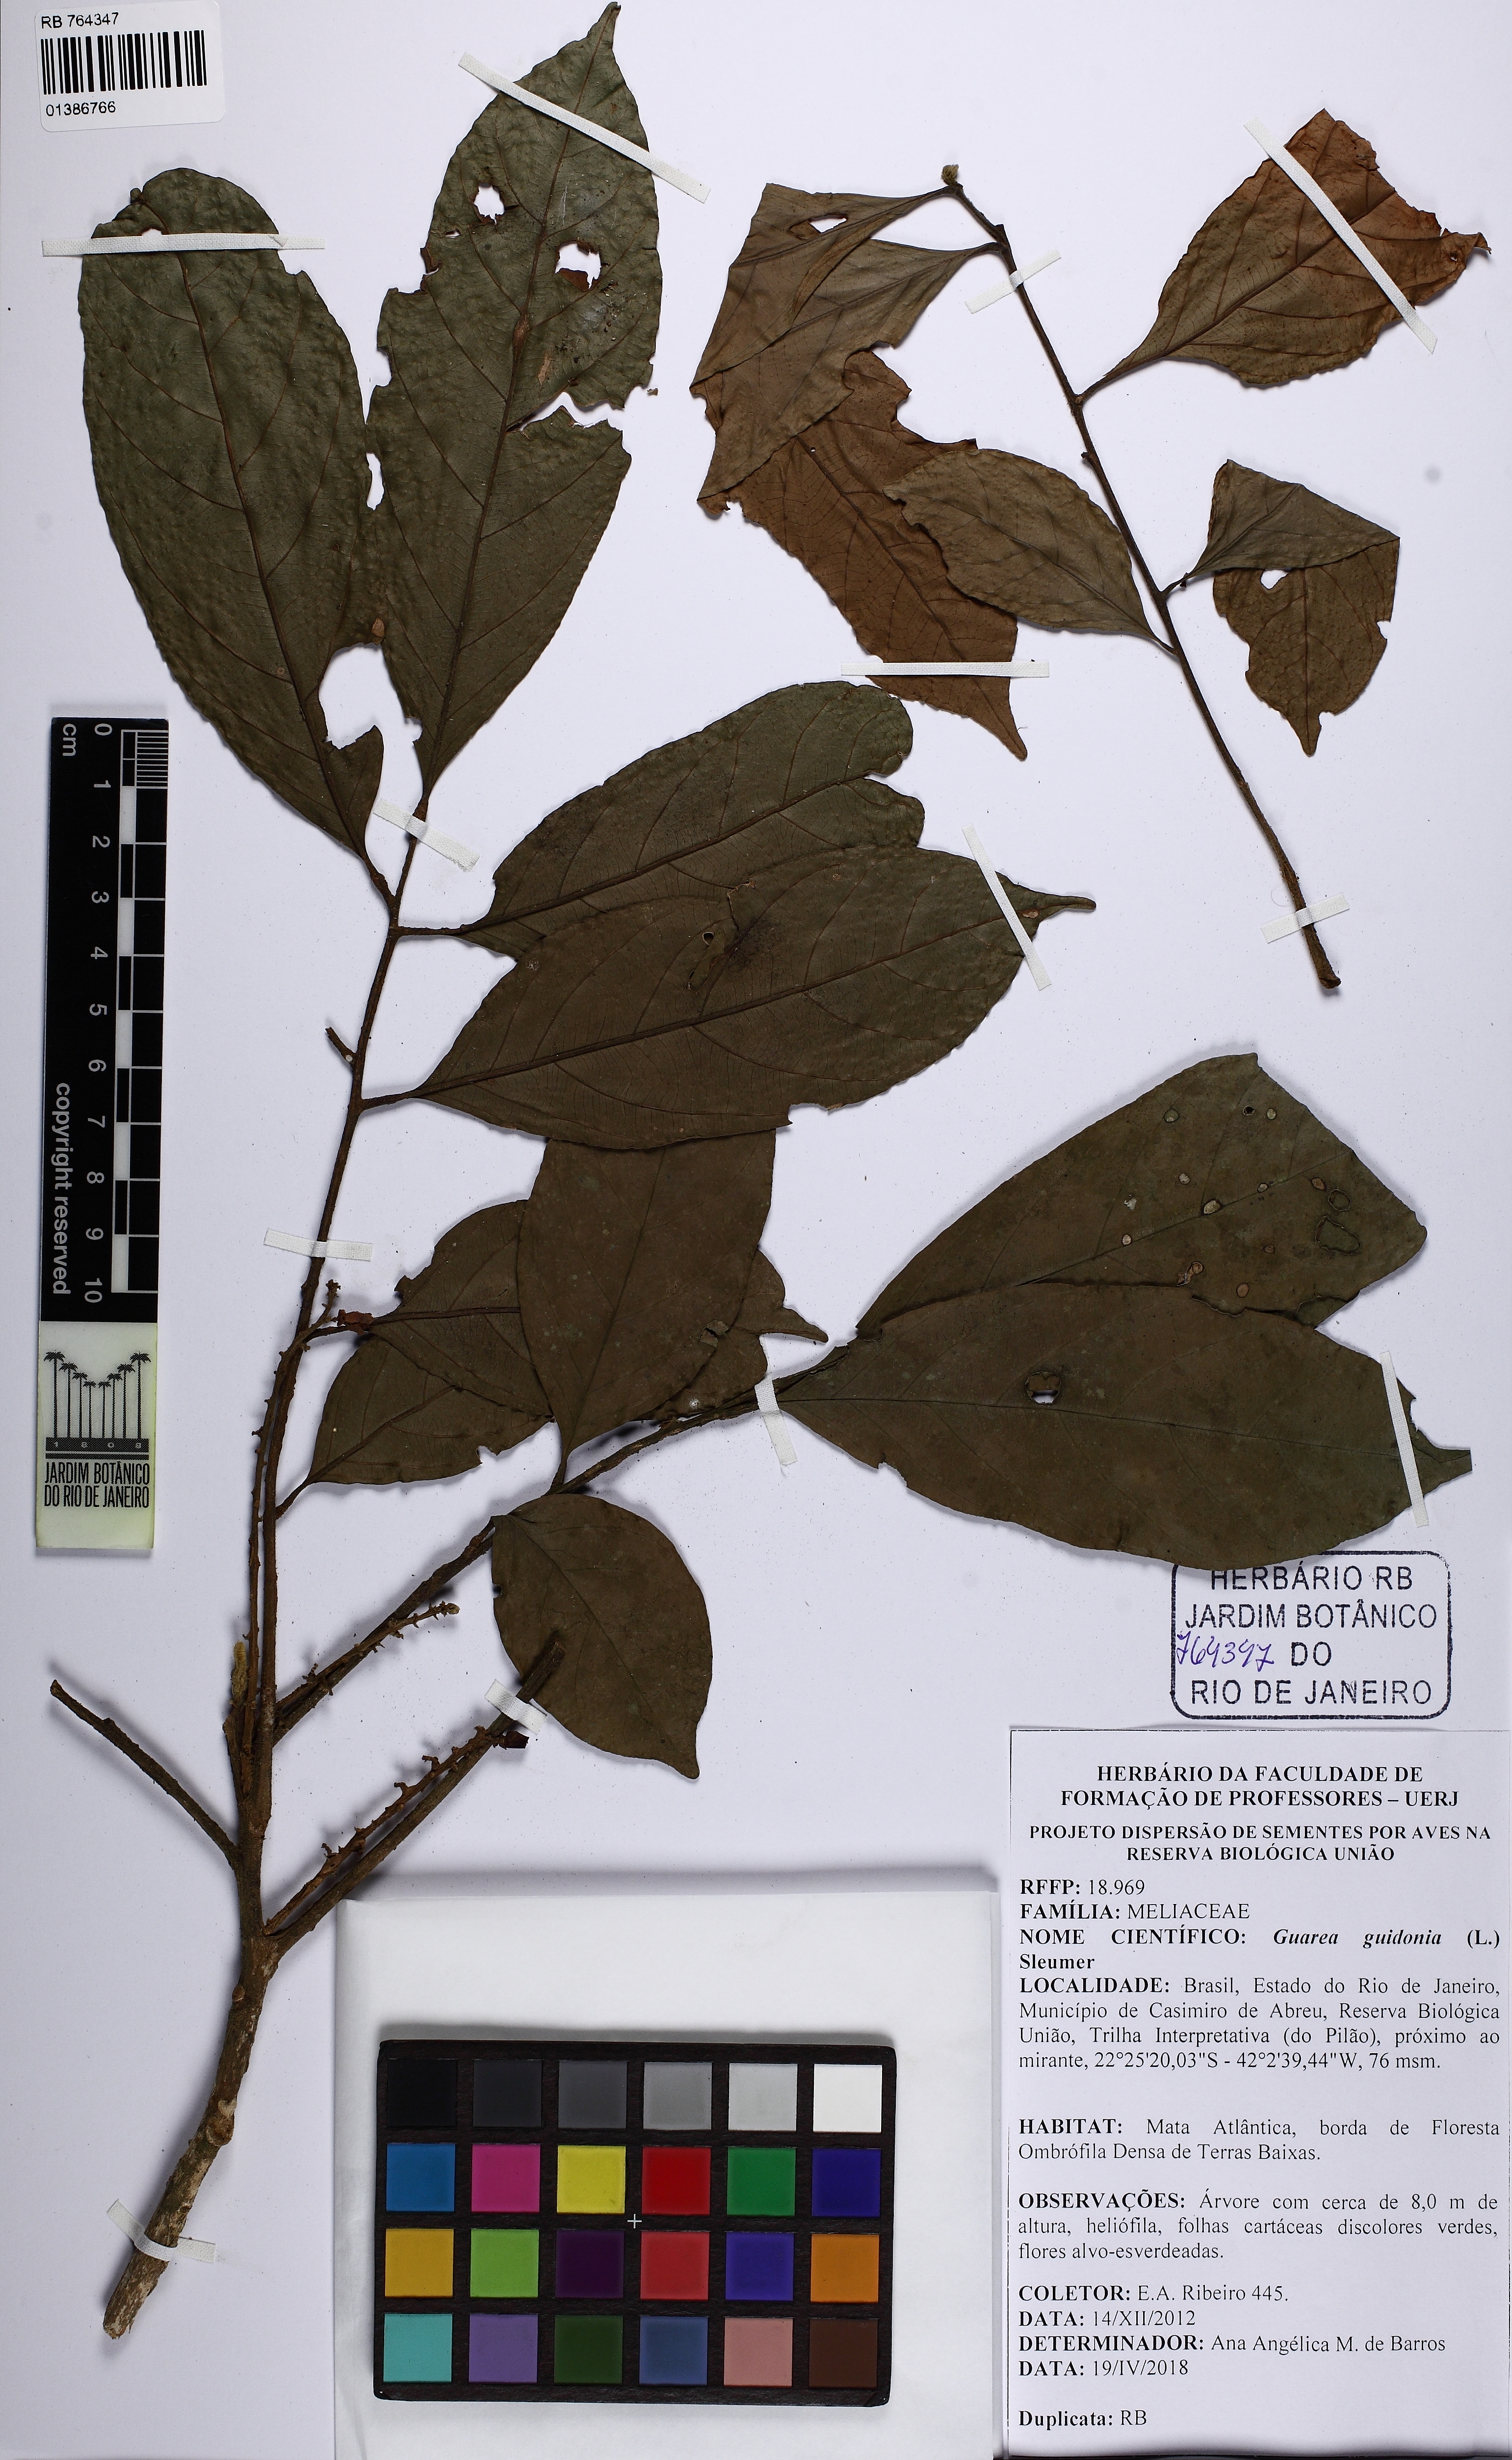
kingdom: Plantae
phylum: Tracheophyta
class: Magnoliopsida
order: Sapindales
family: Meliaceae
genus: Guarea
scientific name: Guarea guidonia
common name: American muskwood
